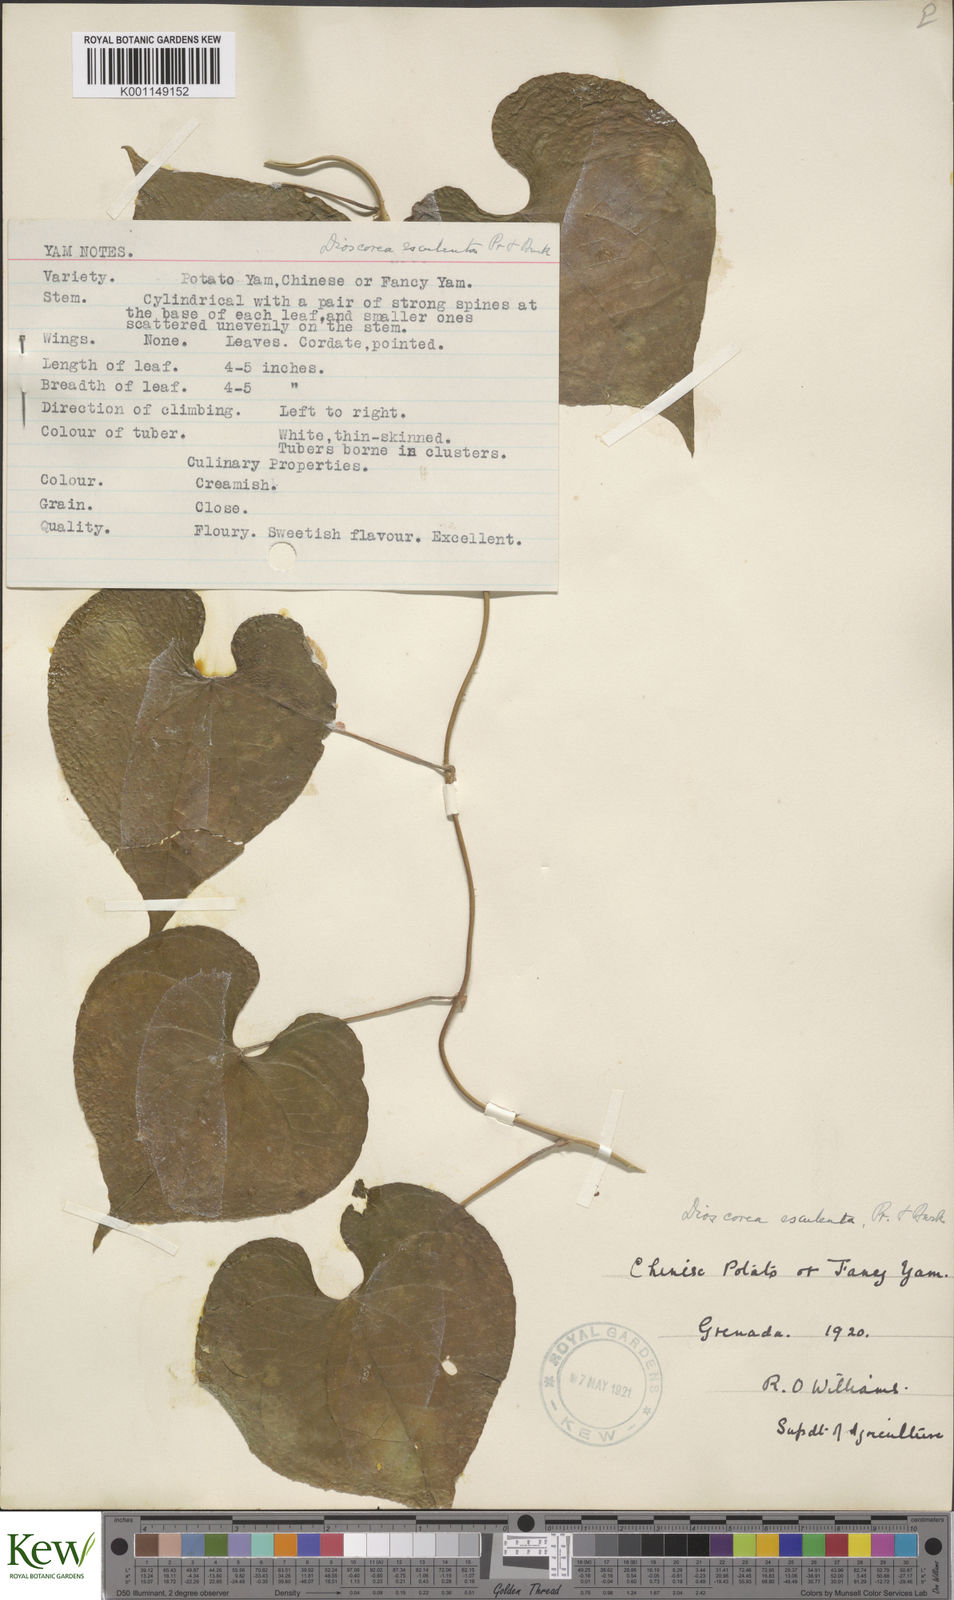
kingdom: Plantae
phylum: Tracheophyta
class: Liliopsida
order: Dioscoreales
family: Dioscoreaceae
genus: Dioscorea
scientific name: Dioscorea esculenta
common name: Chinese yam
